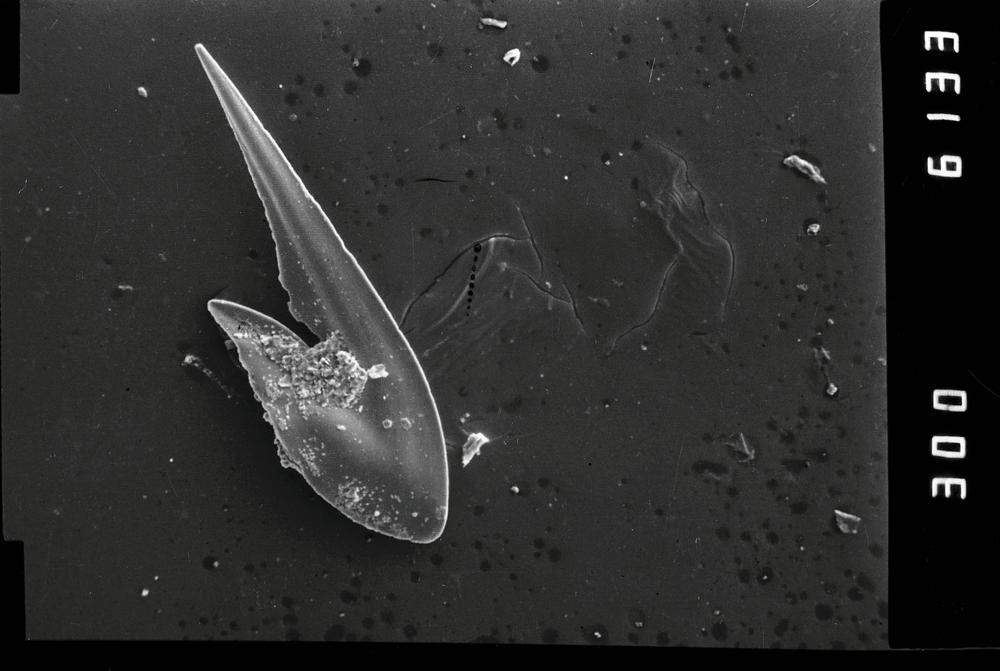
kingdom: Animalia
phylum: Chordata
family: Drepanoistodontidae
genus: Drepanoistodus
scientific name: Drepanoistodus
